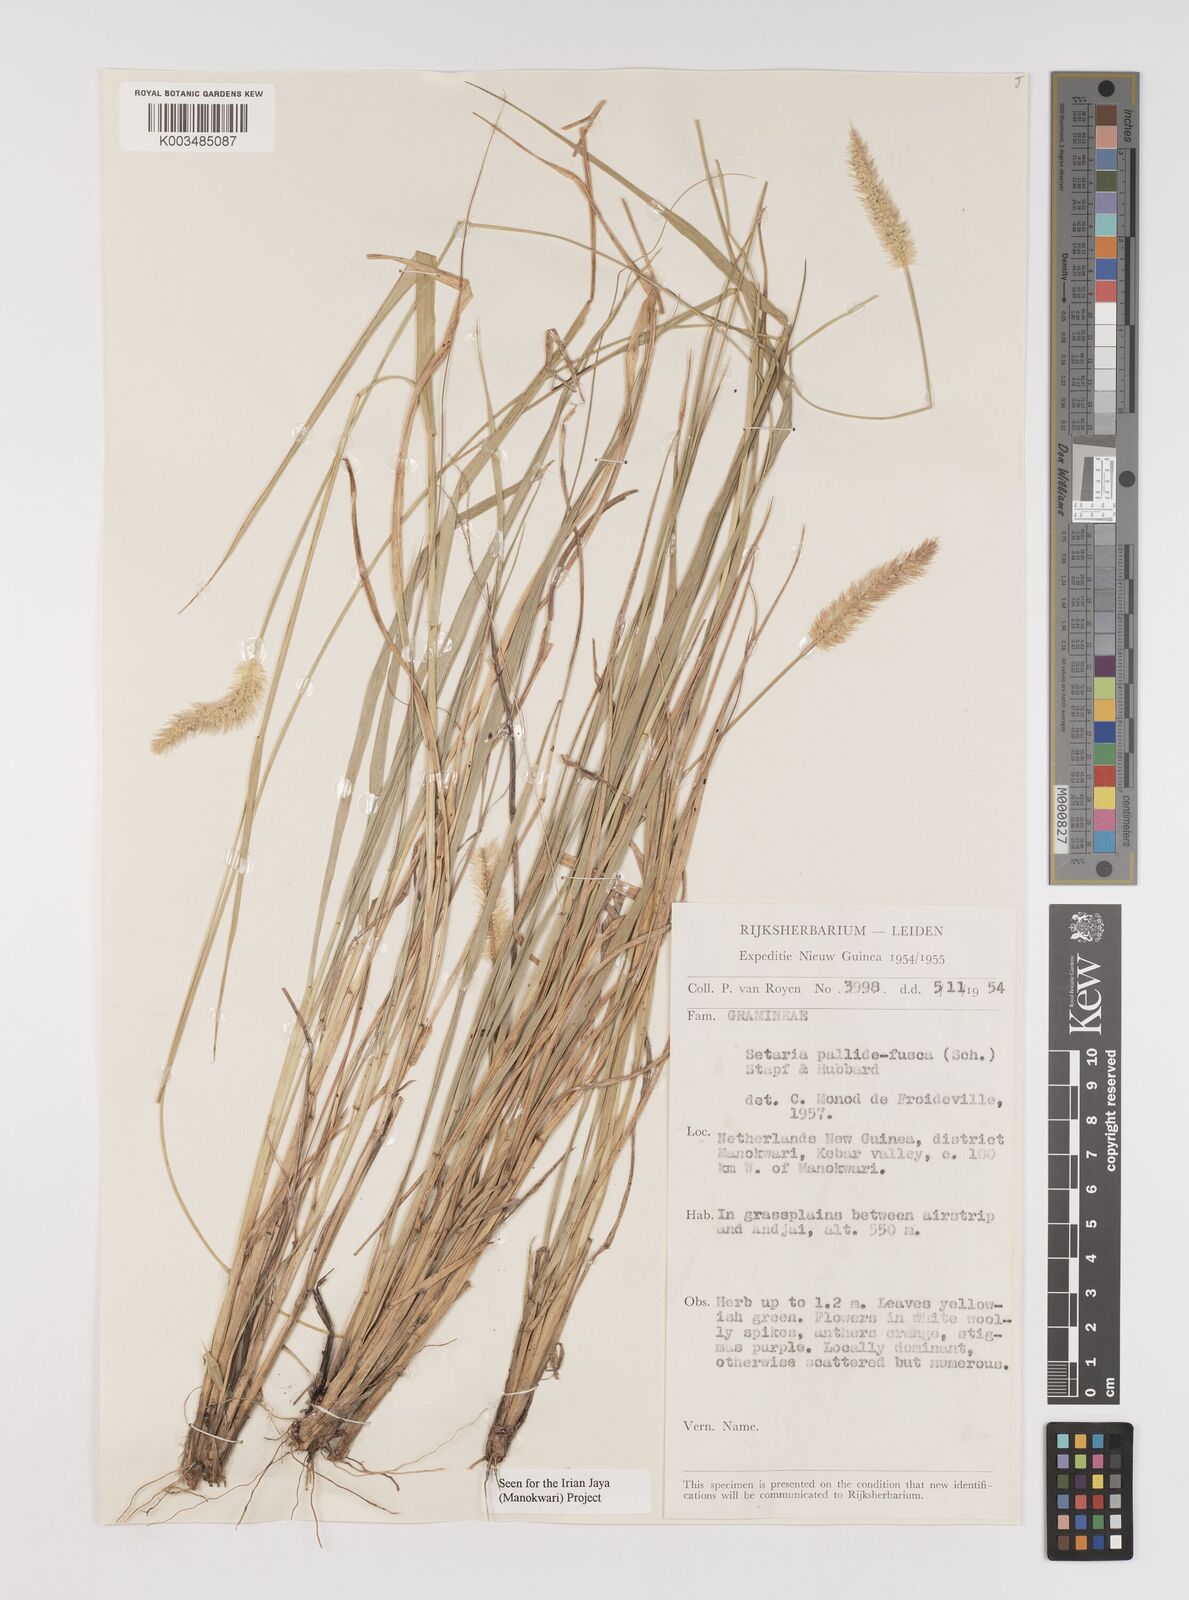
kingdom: Plantae
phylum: Tracheophyta
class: Liliopsida
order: Poales
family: Poaceae
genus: Setaria
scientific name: Setaria parviflora
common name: Knotroot bristle-grass
